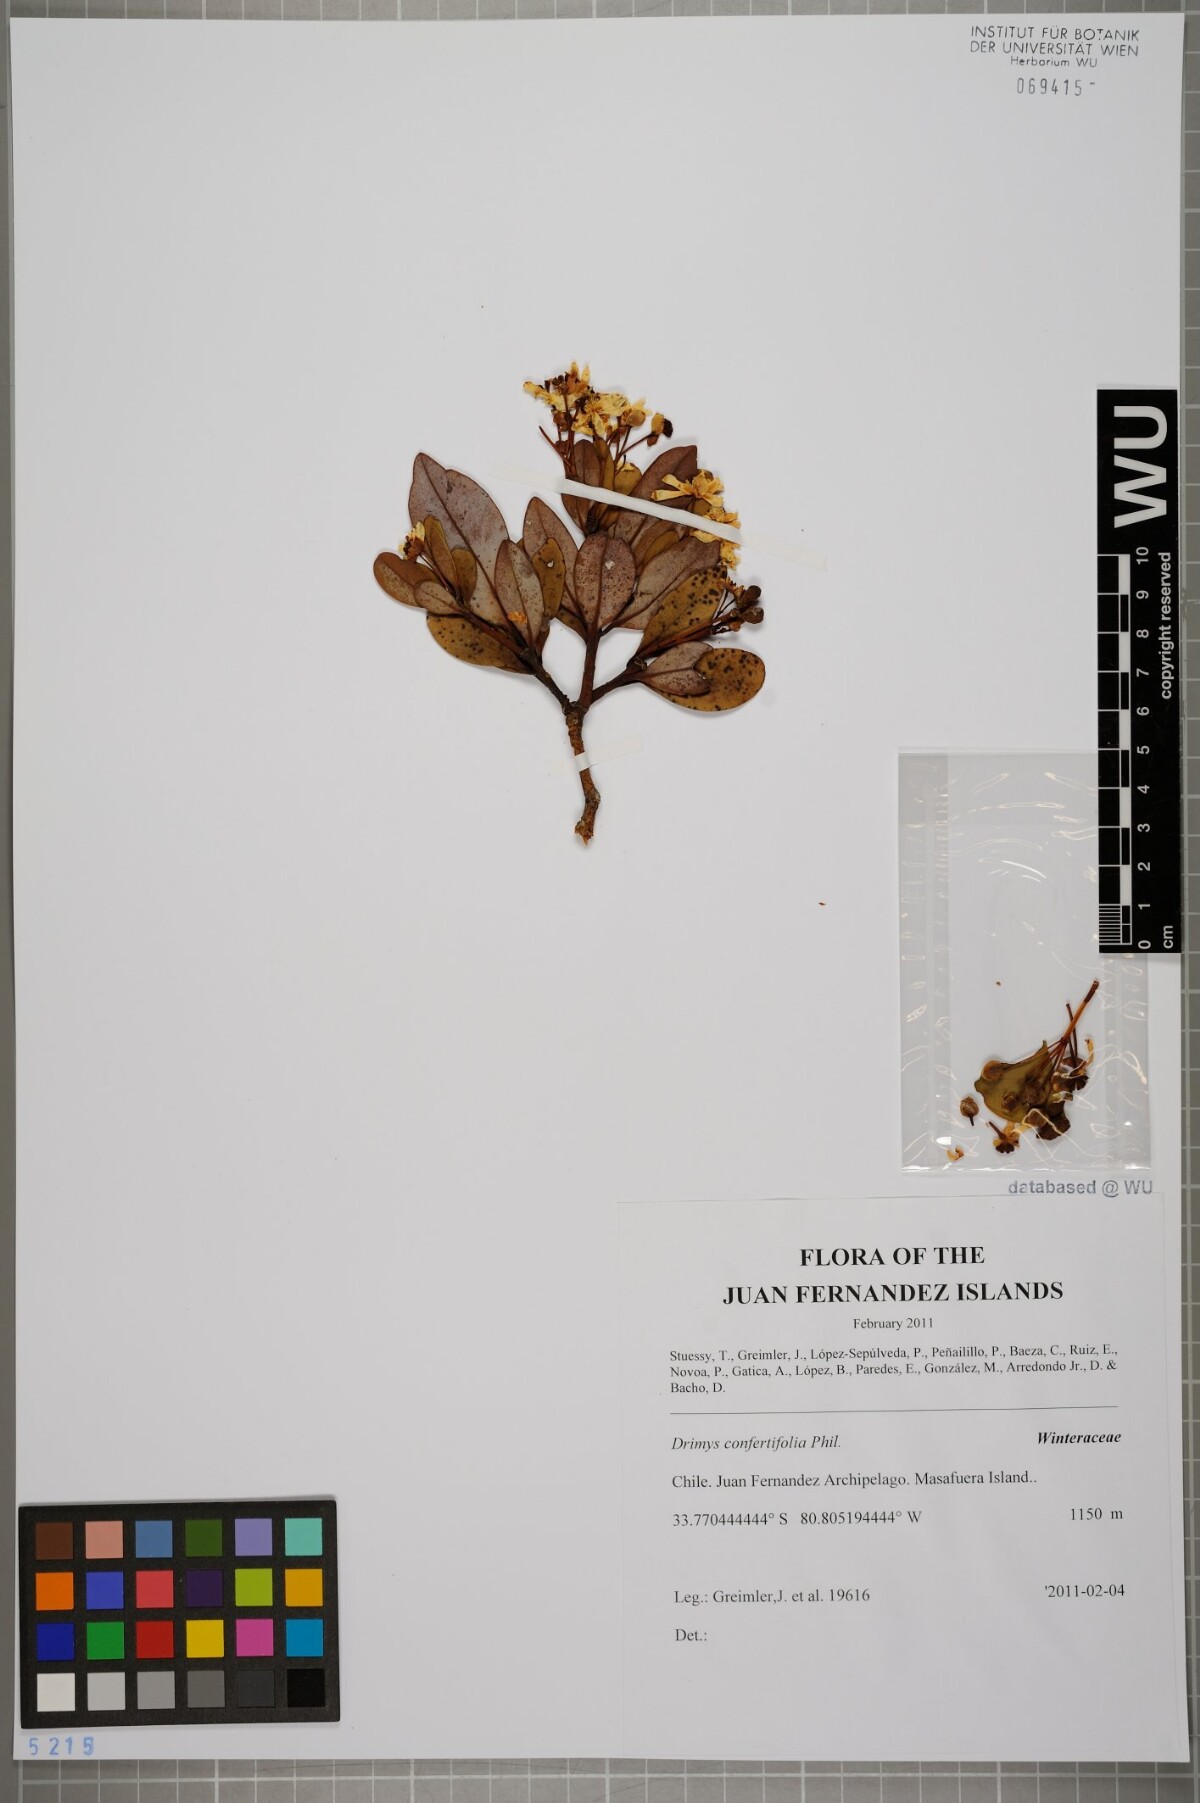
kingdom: Plantae
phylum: Tracheophyta
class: Magnoliopsida
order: Canellales
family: Winteraceae
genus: Drimys
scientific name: Drimys confertiflora
